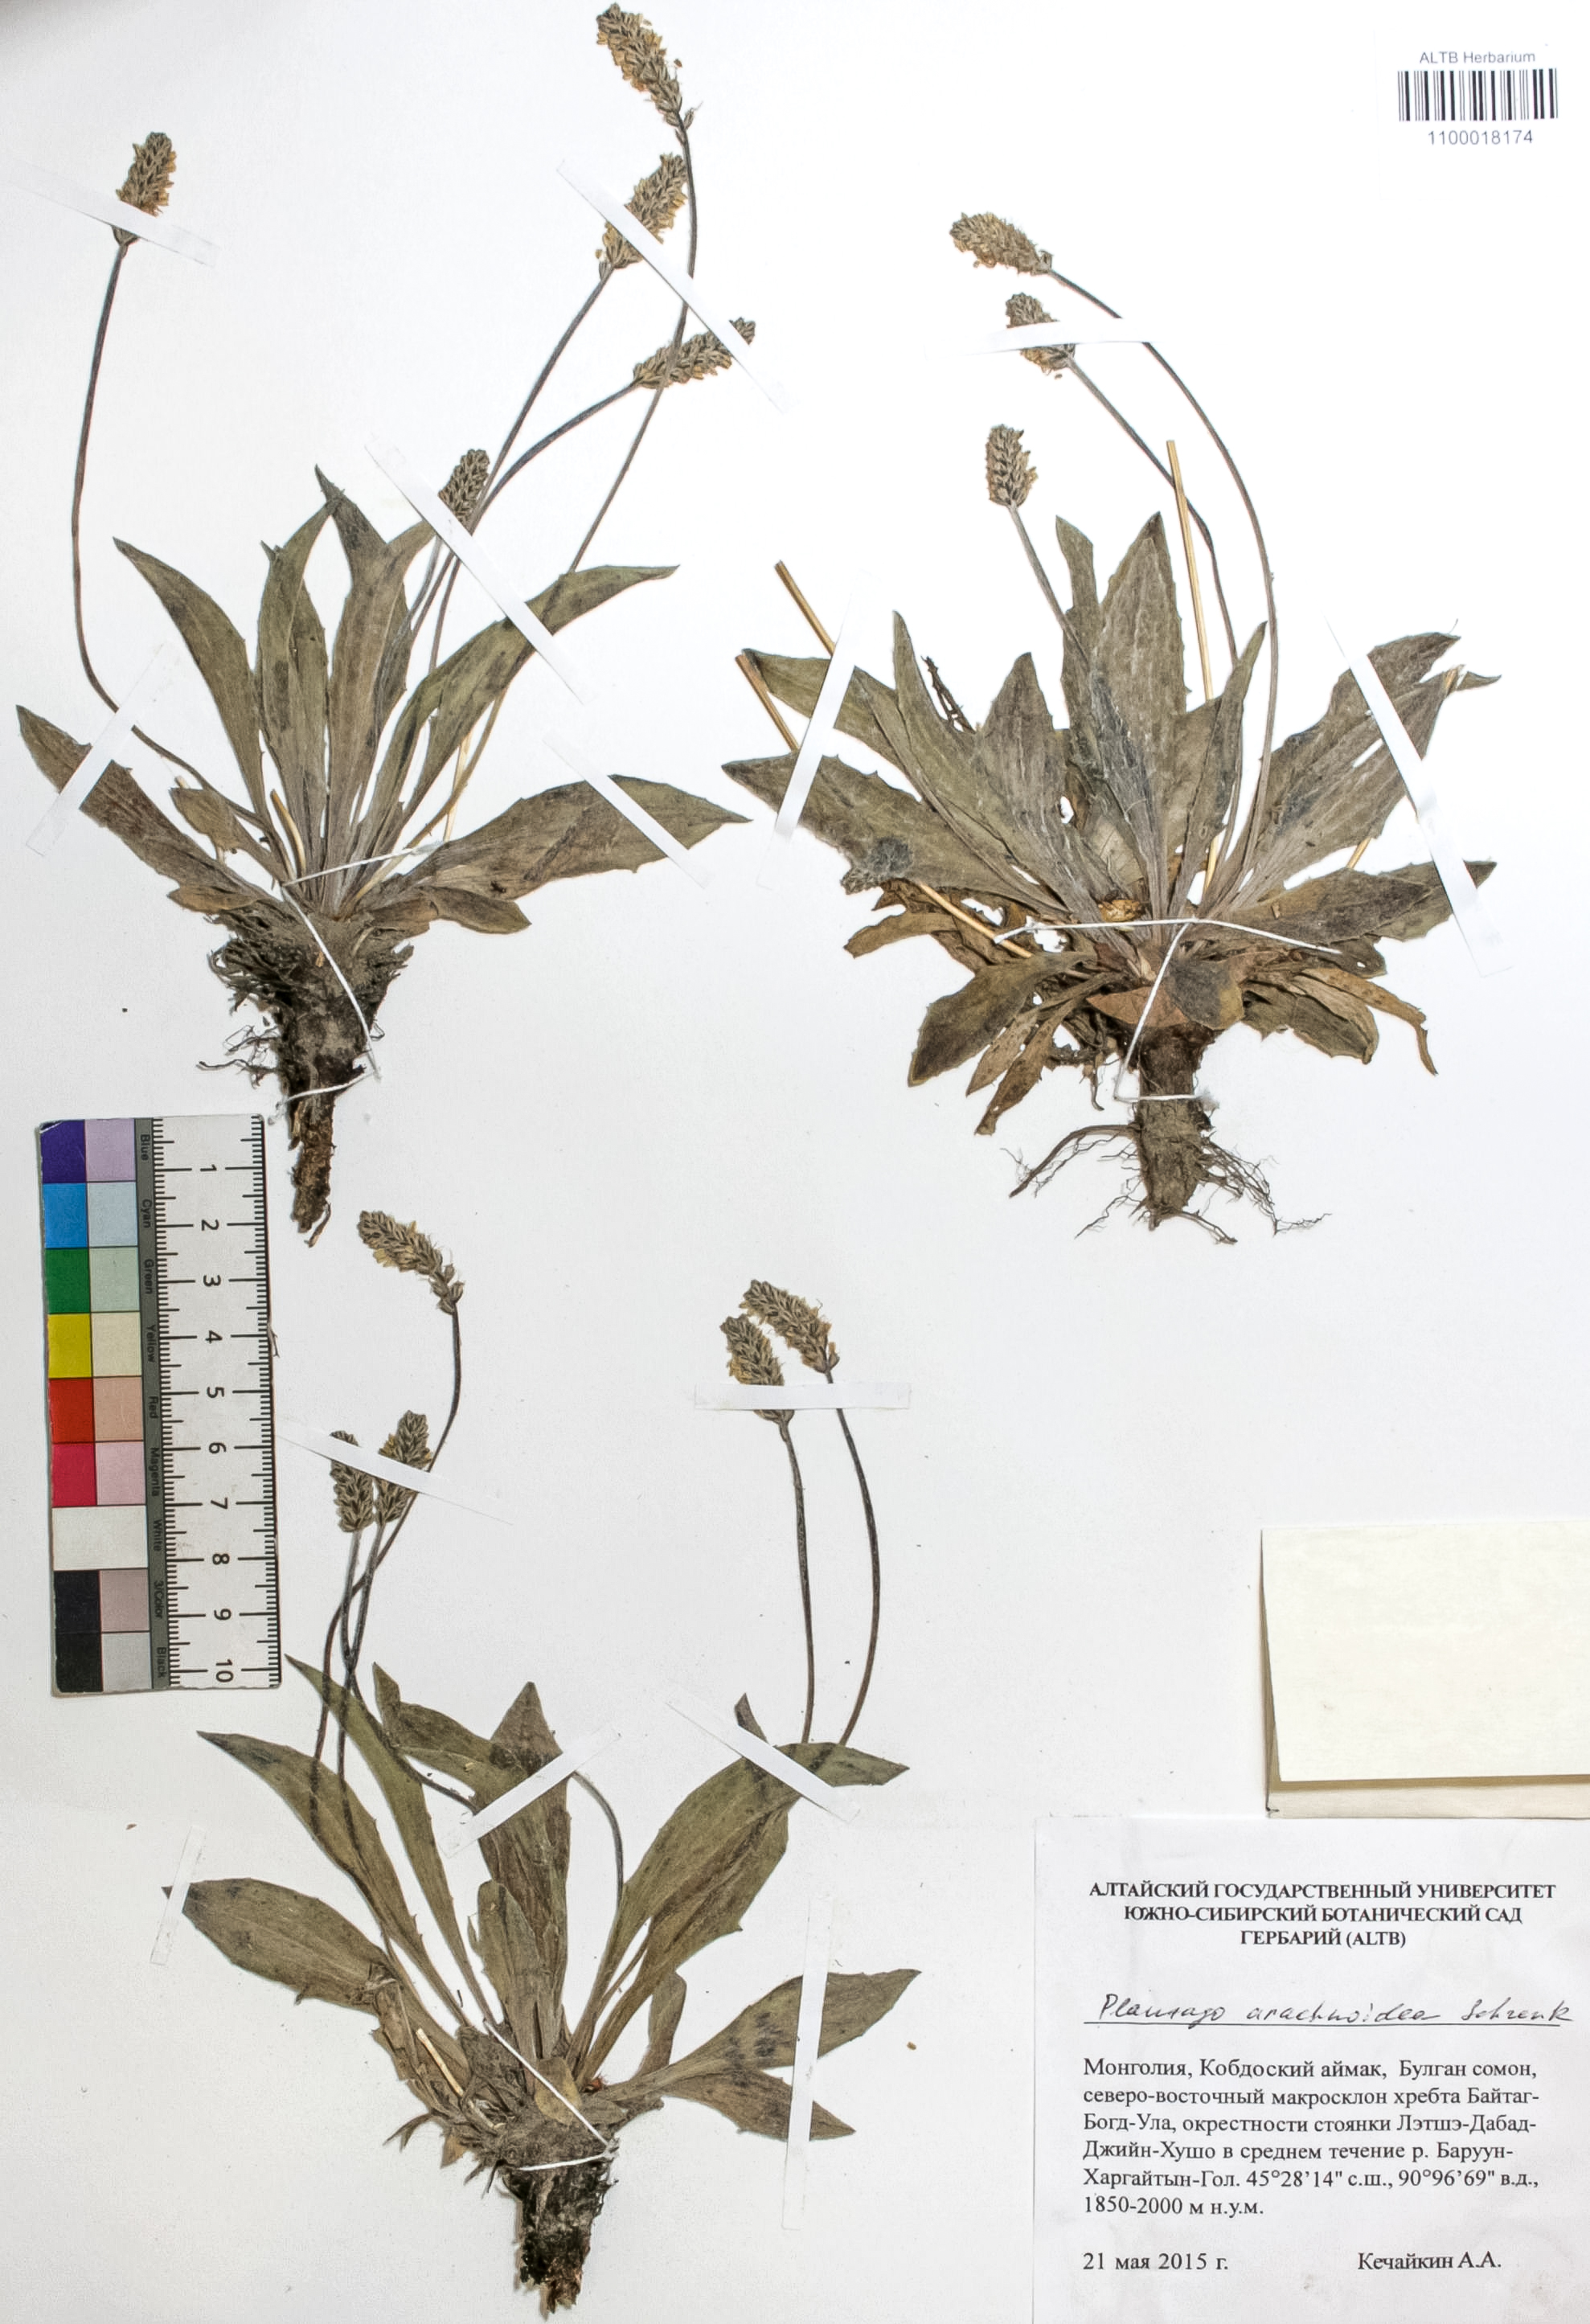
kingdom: Plantae
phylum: Tracheophyta
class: Magnoliopsida
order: Lamiales
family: Plantaginaceae
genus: Plantago
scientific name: Plantago arachnoidea
